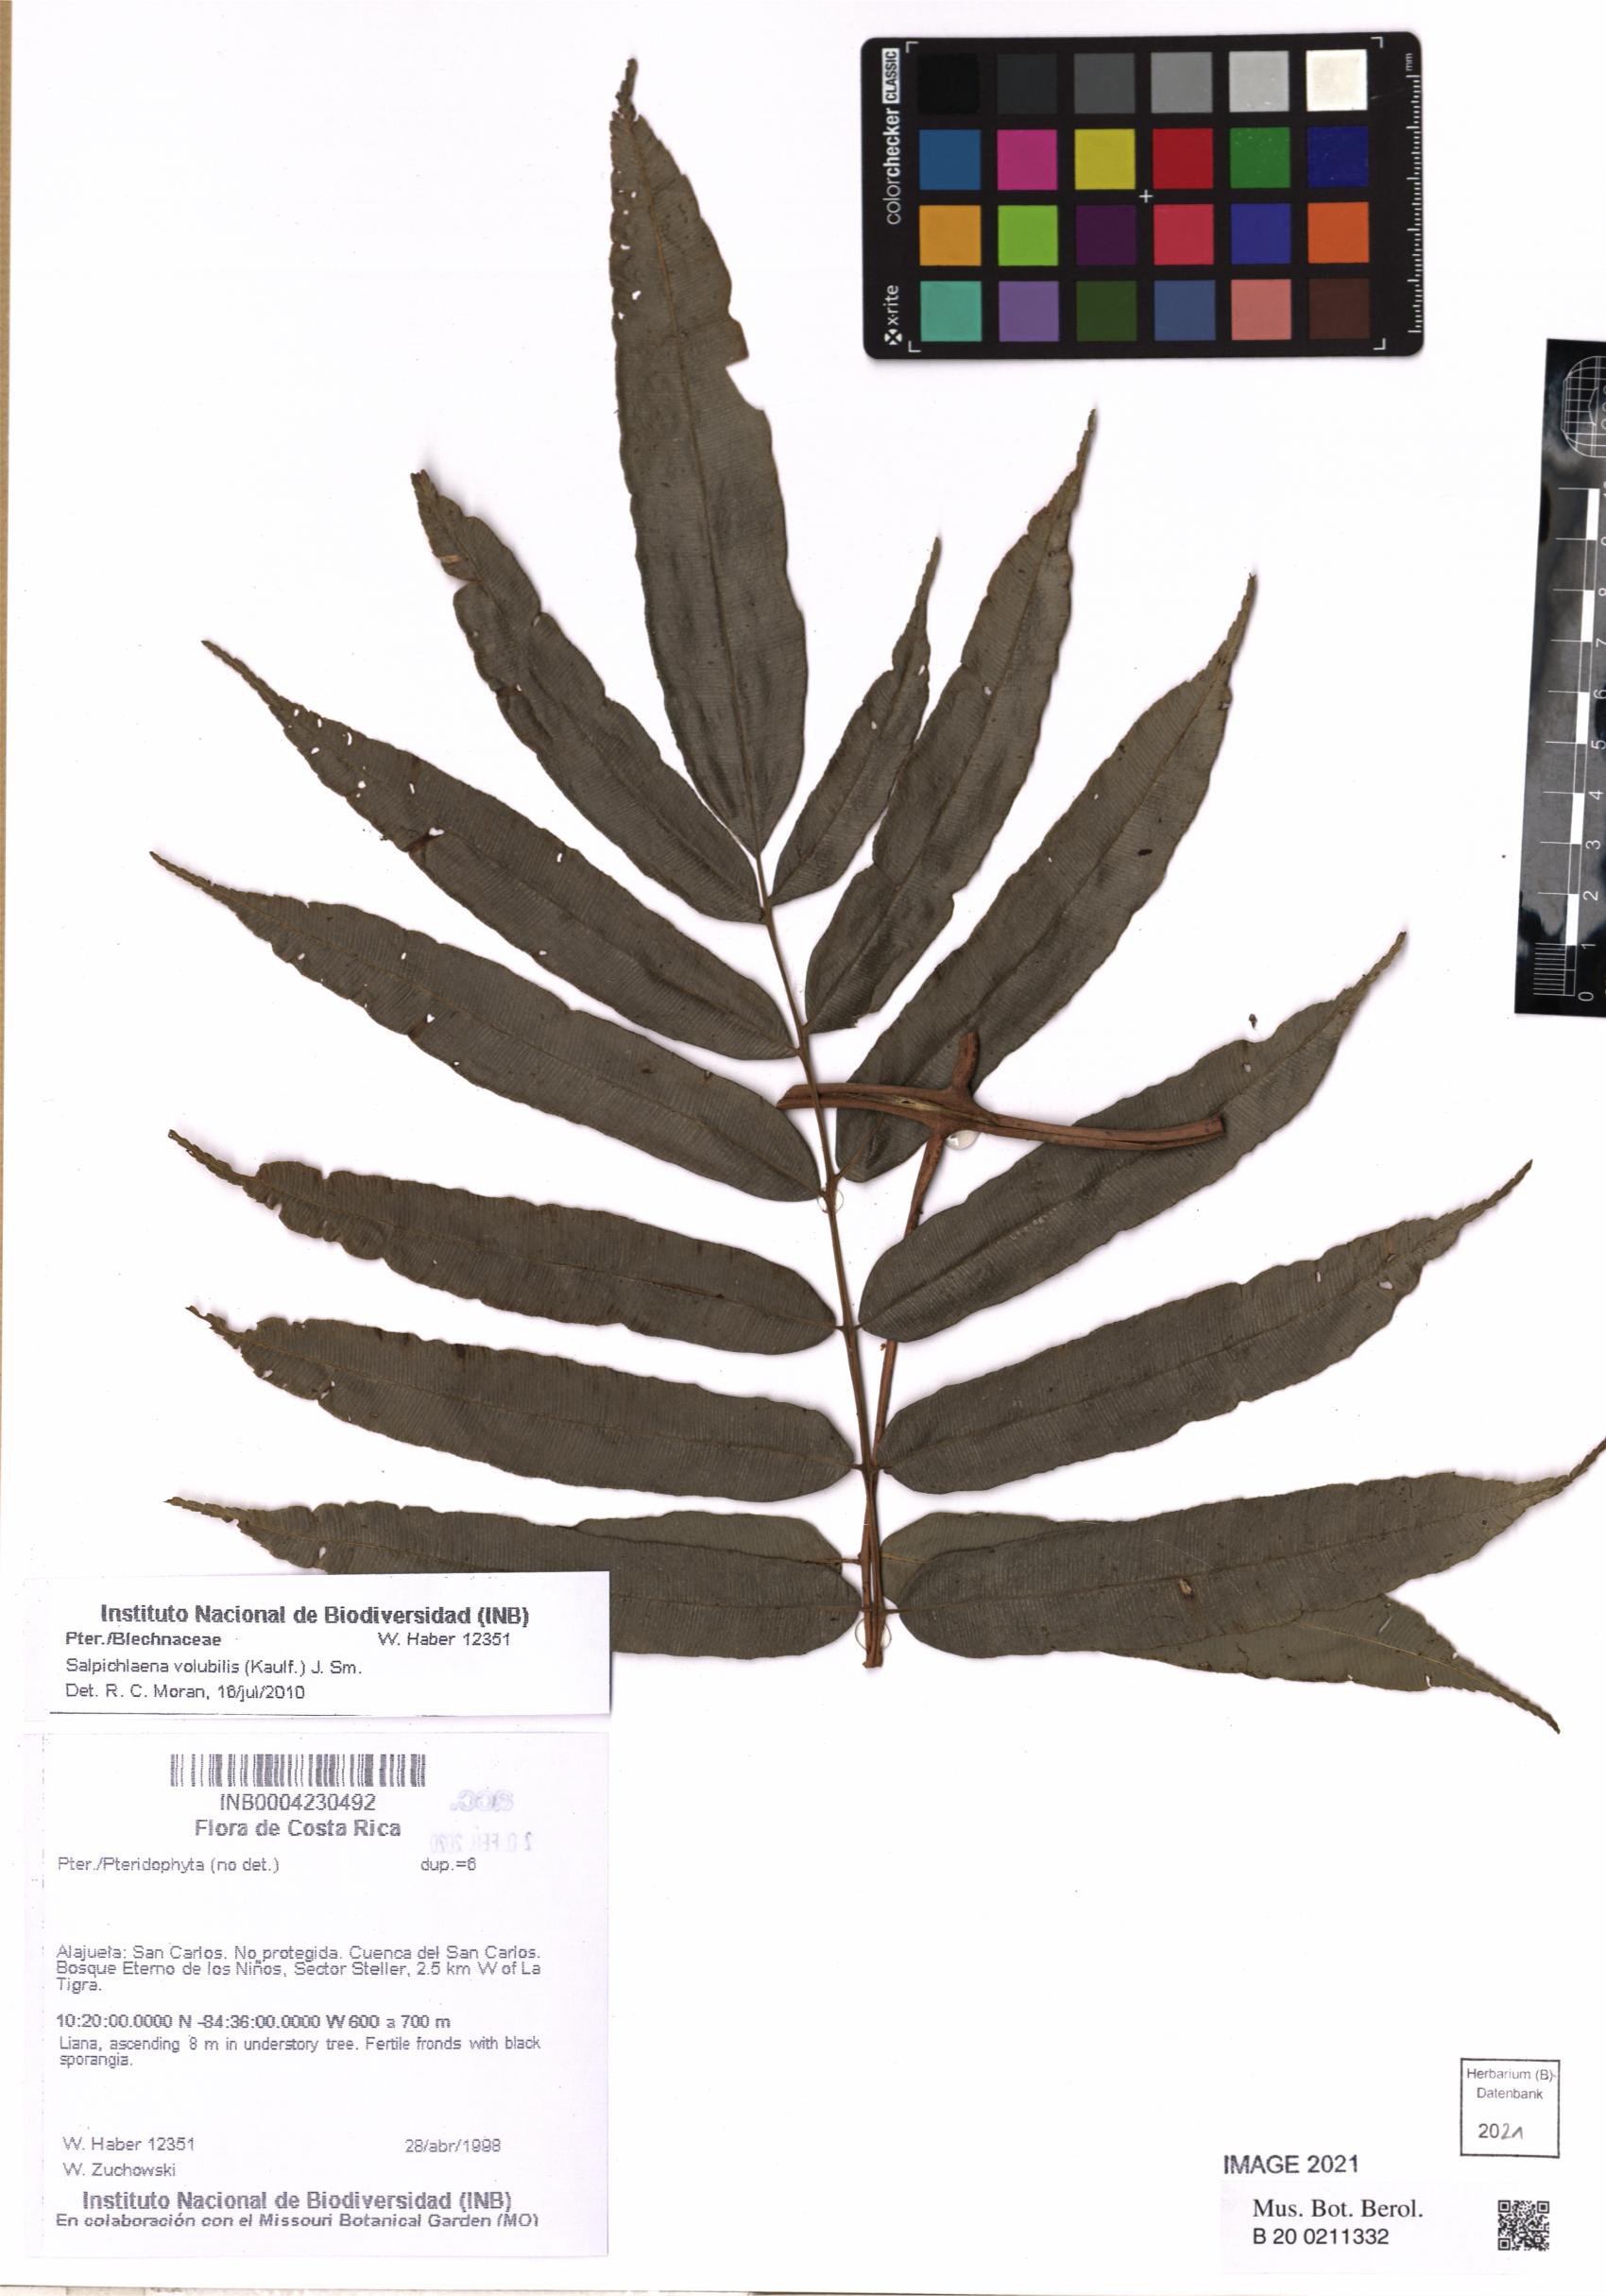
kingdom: Plantae
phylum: Tracheophyta
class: Polypodiopsida
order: Polypodiales
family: Blechnaceae
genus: Salpichlaena
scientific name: Salpichlaena volubilis
